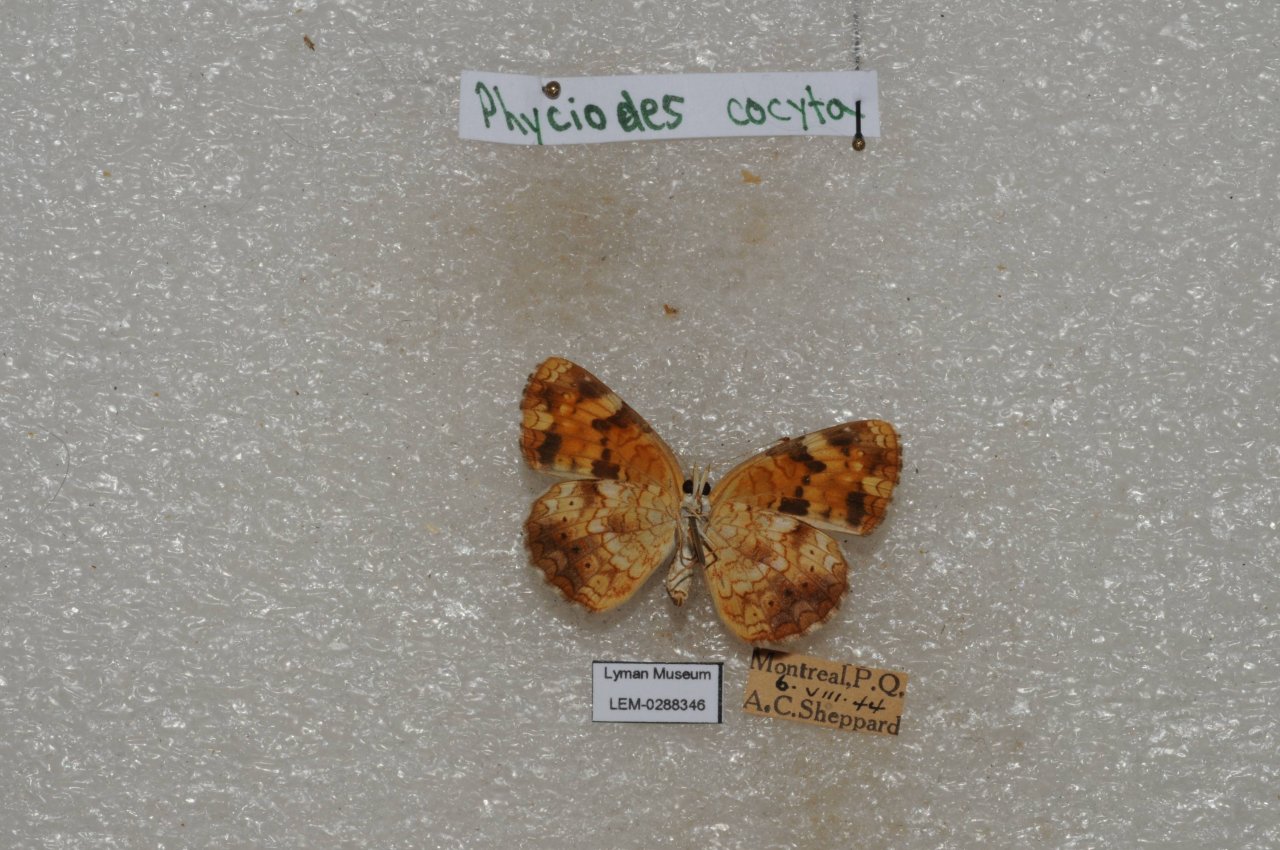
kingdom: Animalia
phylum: Arthropoda
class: Insecta
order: Lepidoptera
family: Nymphalidae
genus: Phyciodes
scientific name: Phyciodes tharos
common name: Northern Crescent
